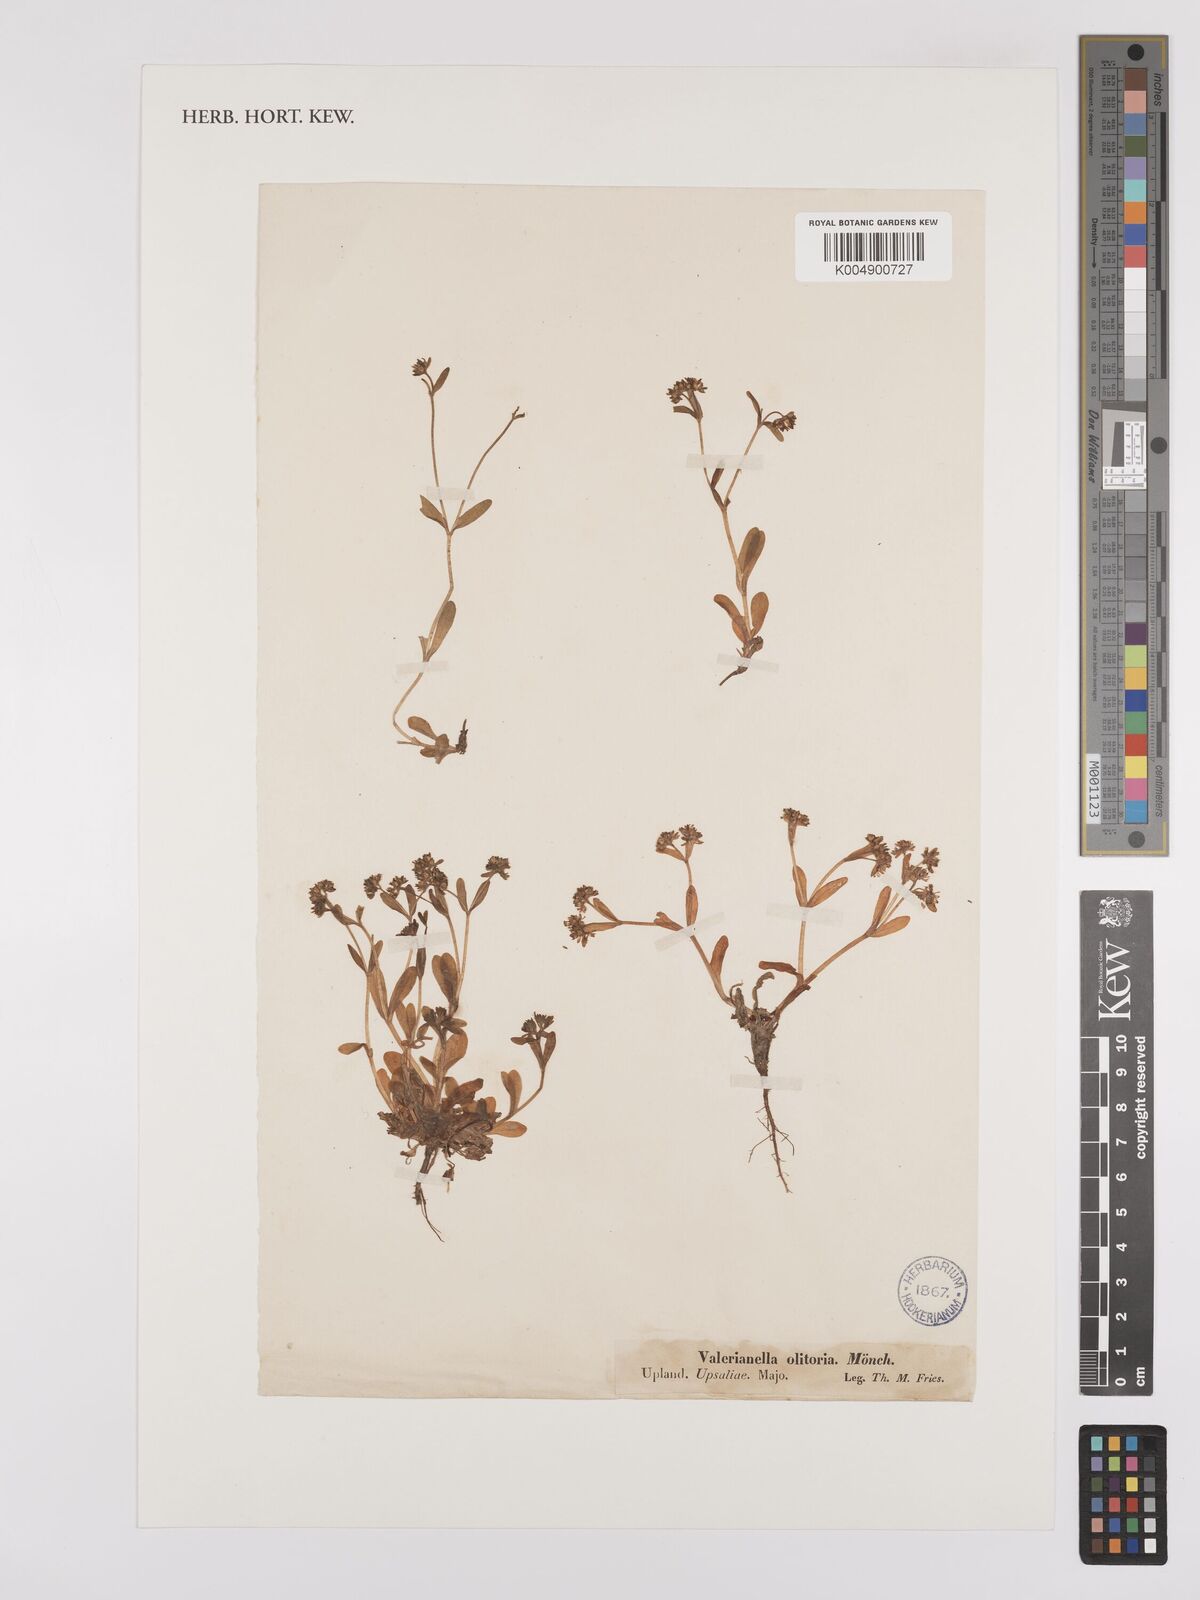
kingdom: Plantae
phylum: Tracheophyta
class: Magnoliopsida
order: Dipsacales
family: Caprifoliaceae
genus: Valerianella
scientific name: Valerianella locusta
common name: Common cornsalad
